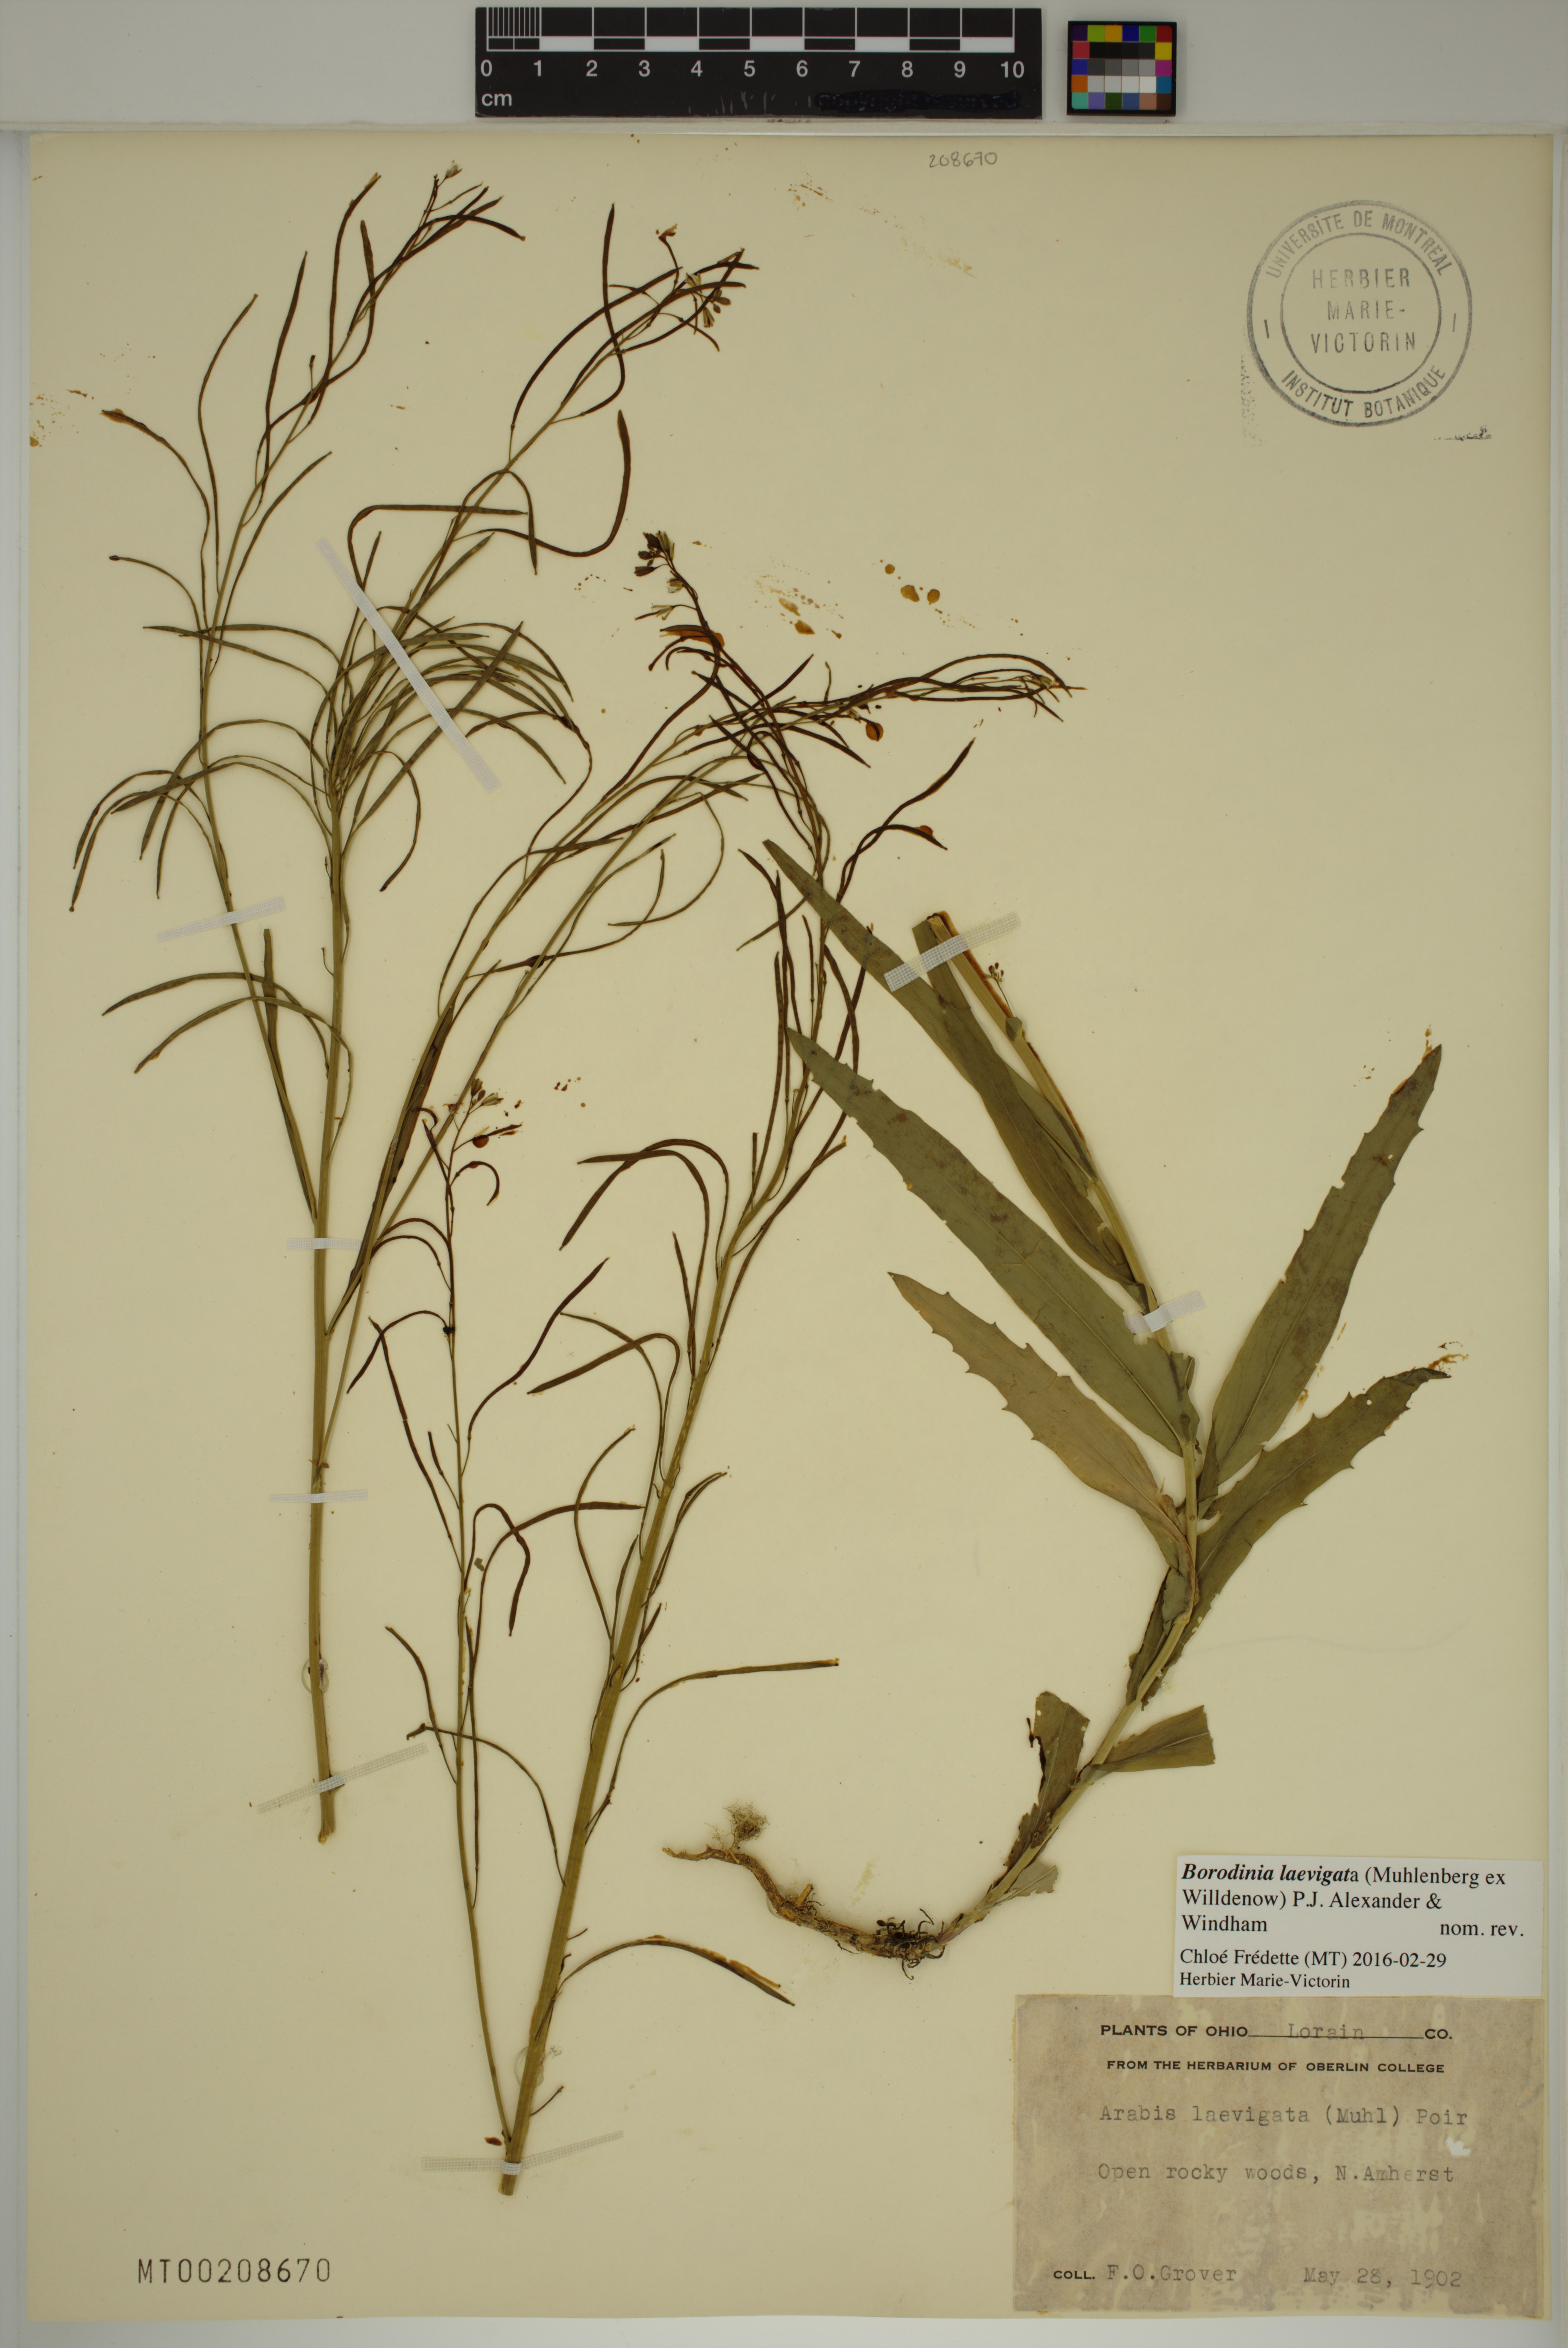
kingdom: Plantae
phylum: Tracheophyta
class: Magnoliopsida
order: Brassicales
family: Brassicaceae
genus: Borodinia
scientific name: Borodinia laevigata
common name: Smooth rockcress
